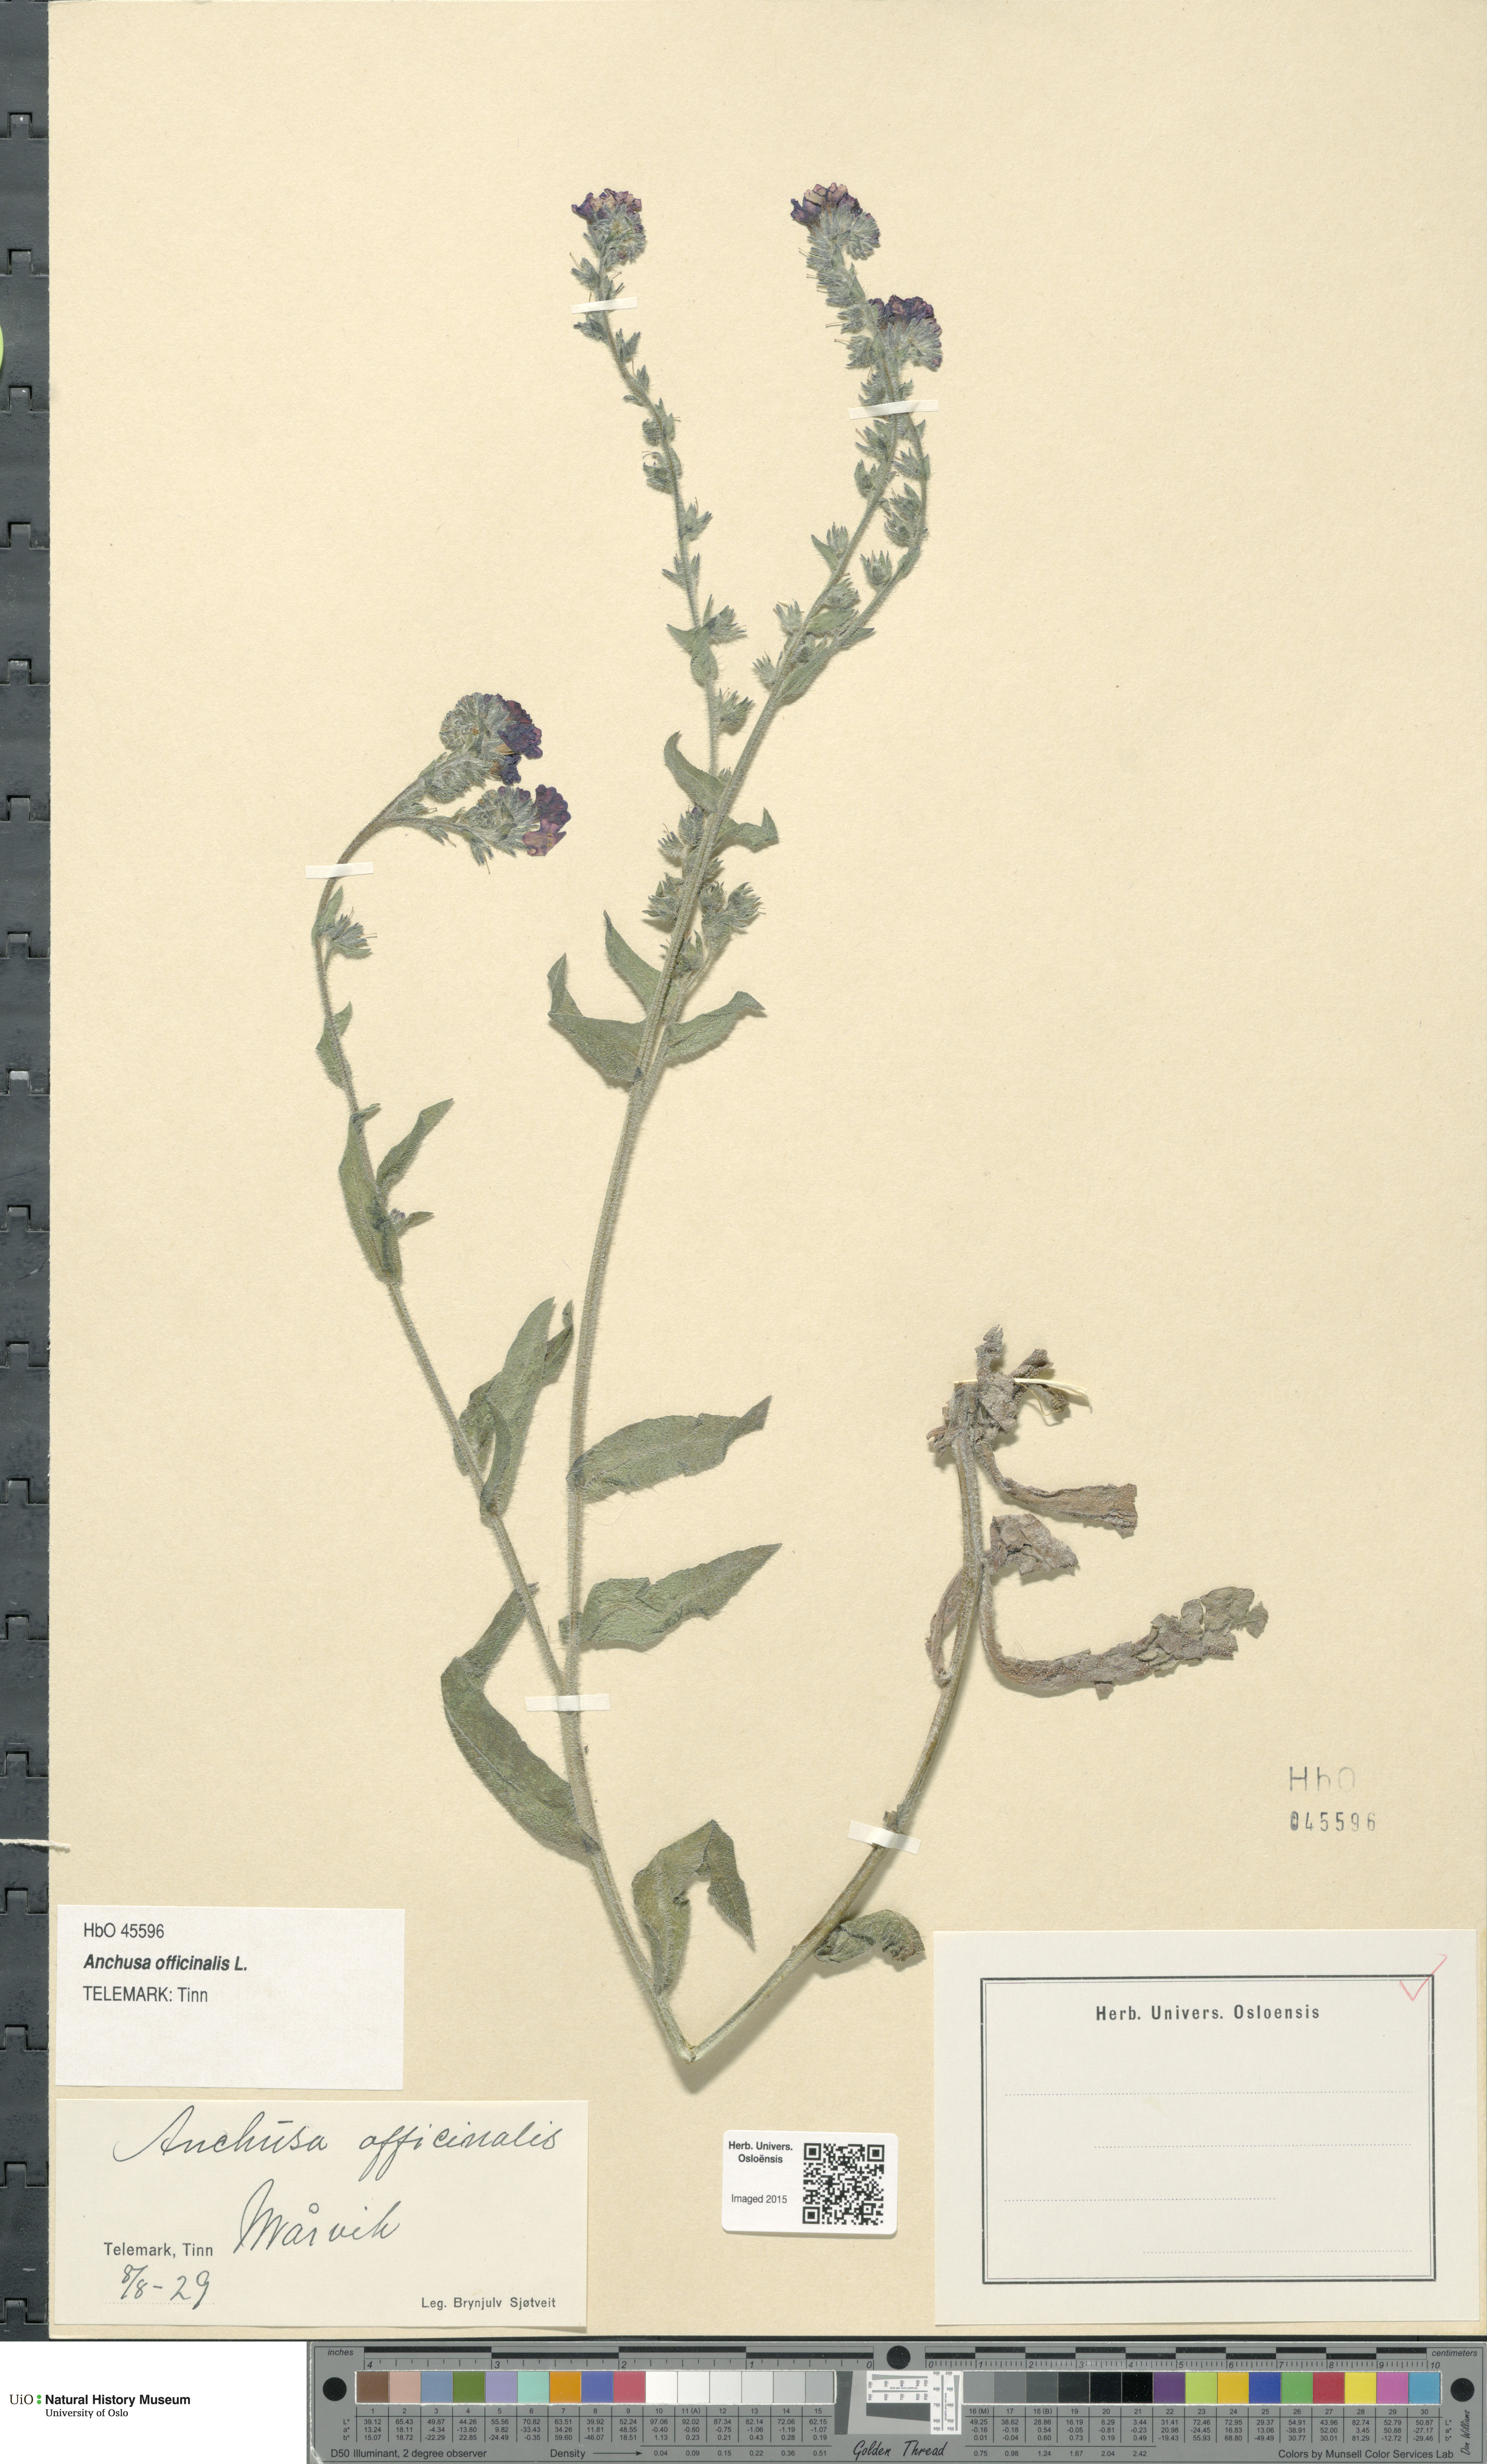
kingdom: Plantae
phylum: Tracheophyta
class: Magnoliopsida
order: Boraginales
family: Boraginaceae
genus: Anchusa
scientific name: Anchusa officinalis
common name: Alkanet
